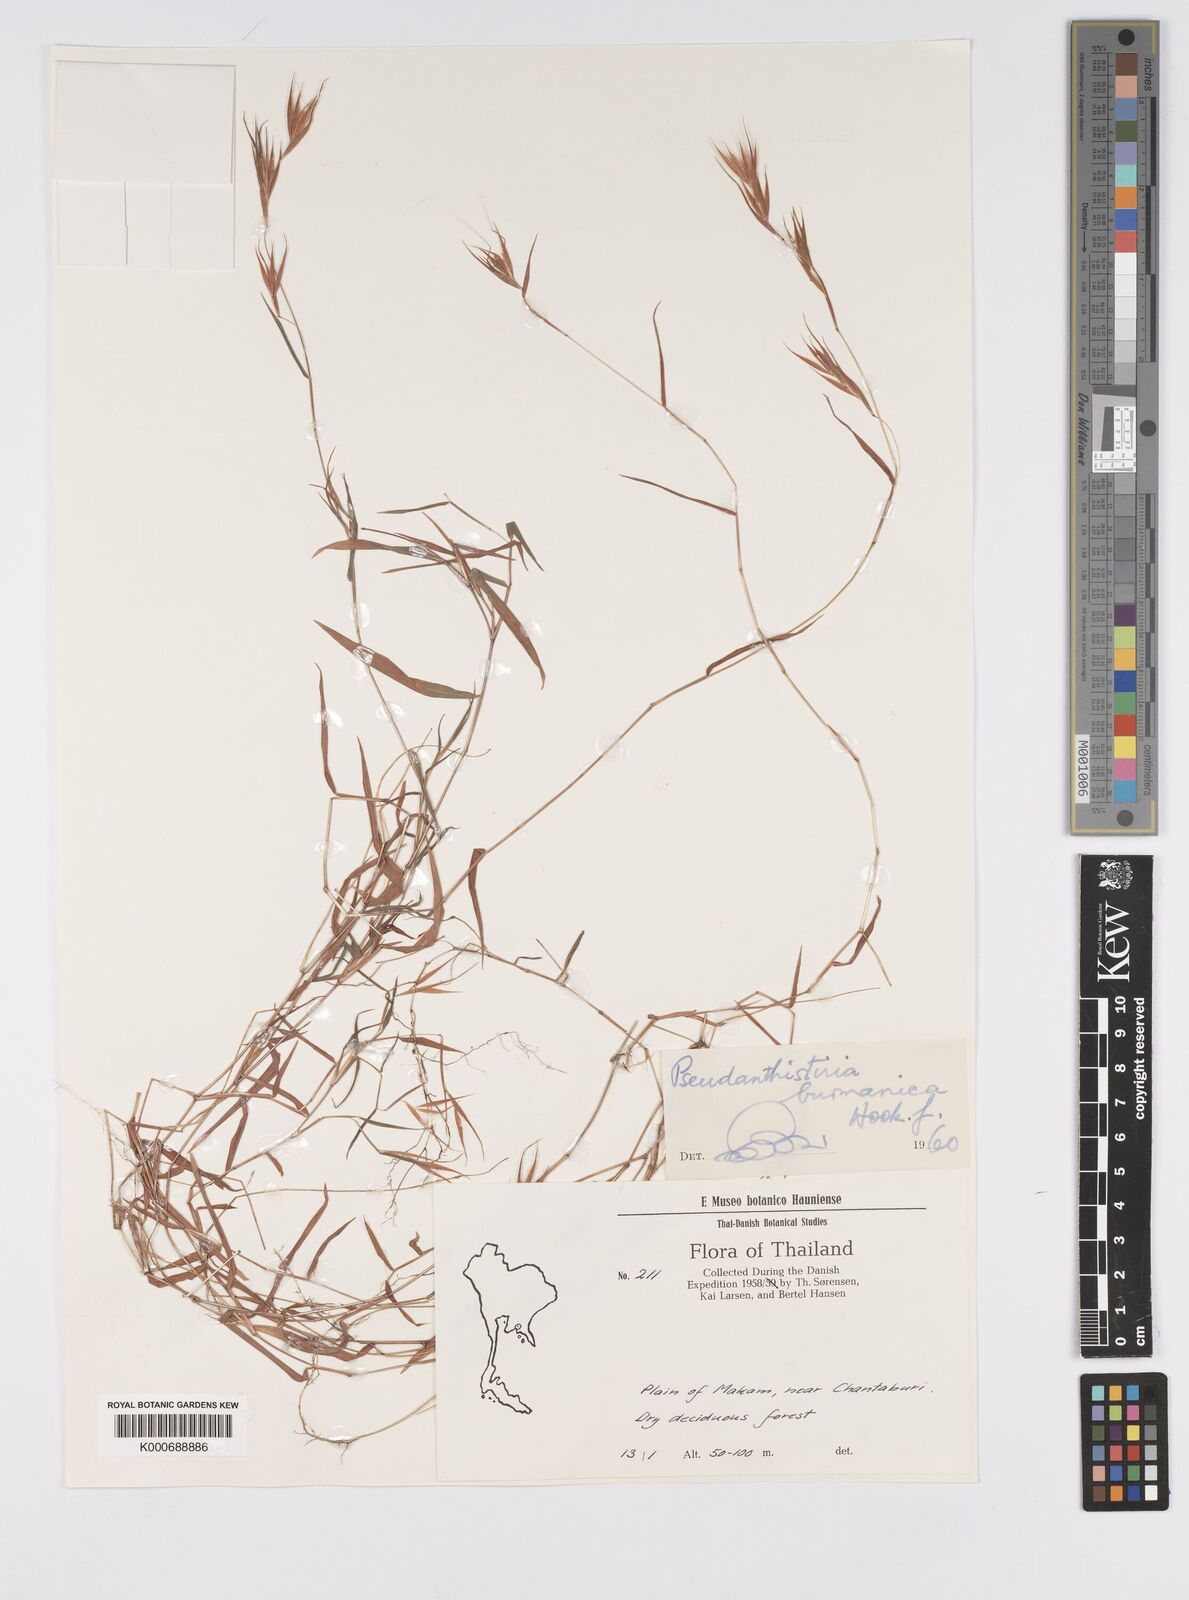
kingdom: Plantae
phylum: Tracheophyta
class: Liliopsida
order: Poales
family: Poaceae
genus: Pseudanthistiria
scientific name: Pseudanthistiria umbellata
